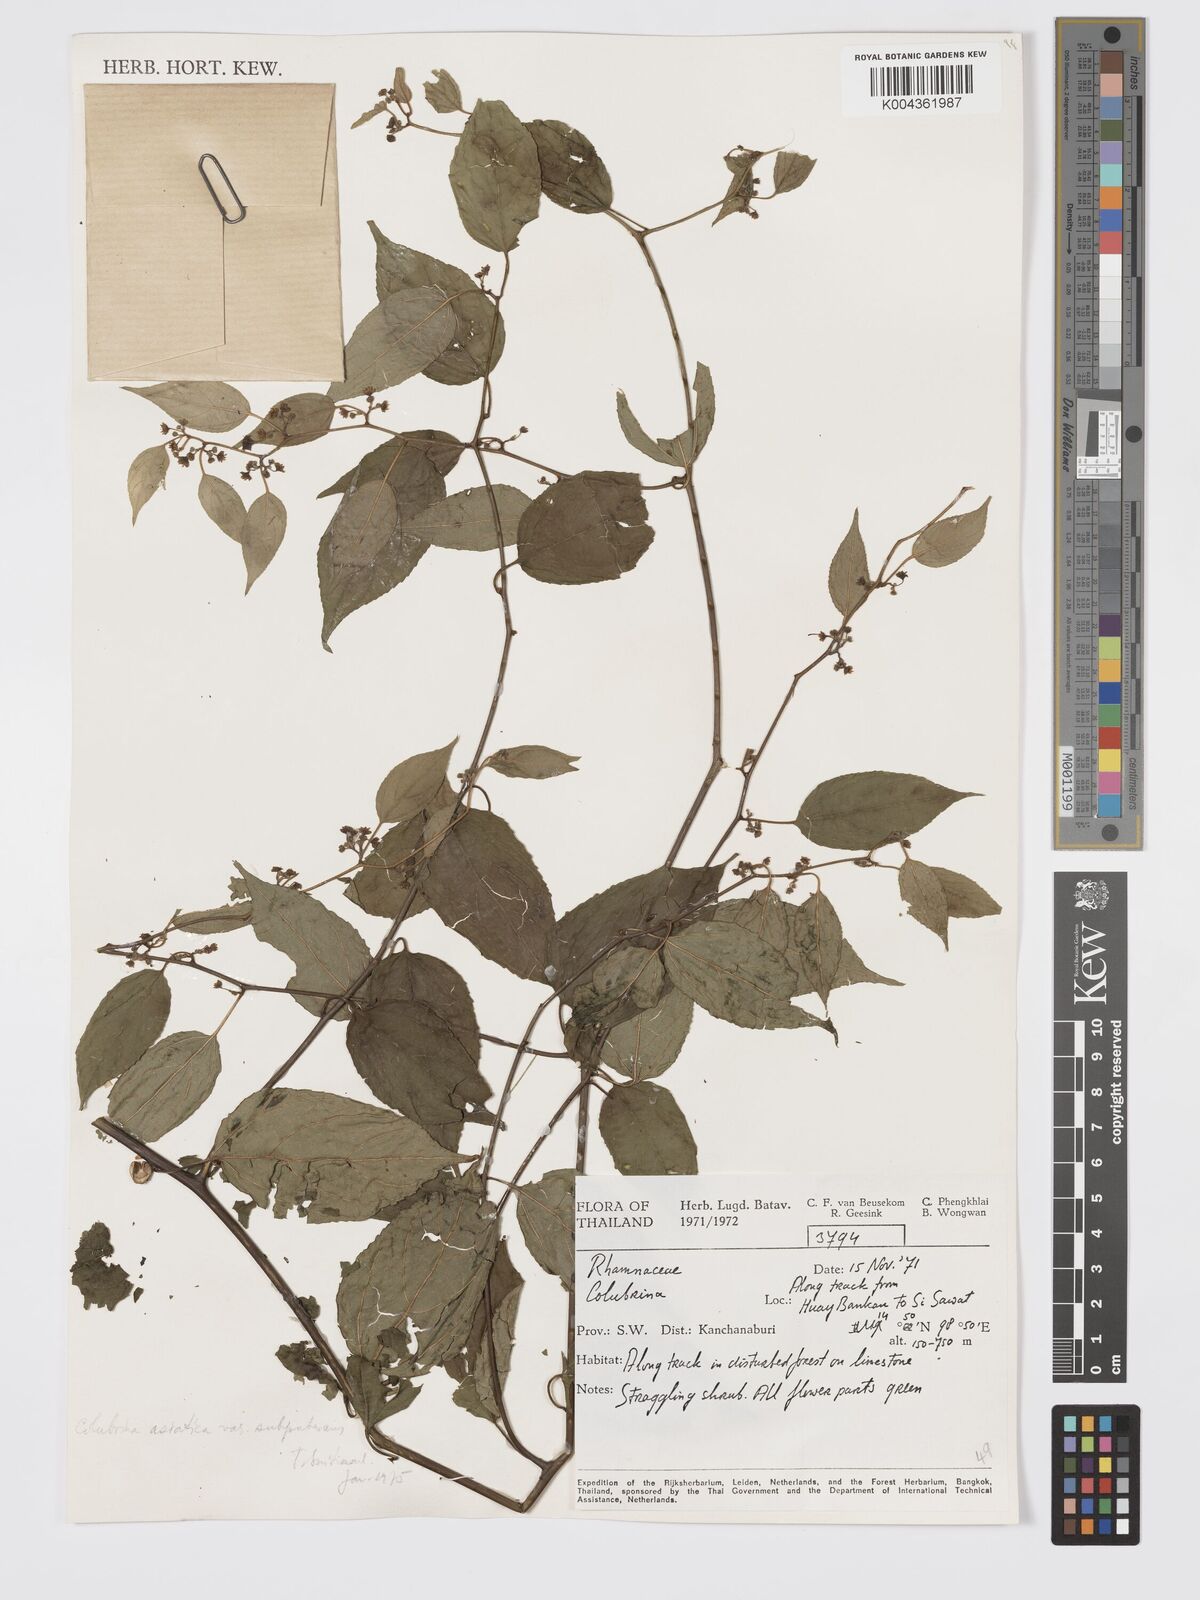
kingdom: Plantae
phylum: Tracheophyta
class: Magnoliopsida
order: Rosales
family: Rhamnaceae
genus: Colubrina
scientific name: Colubrina javanica
